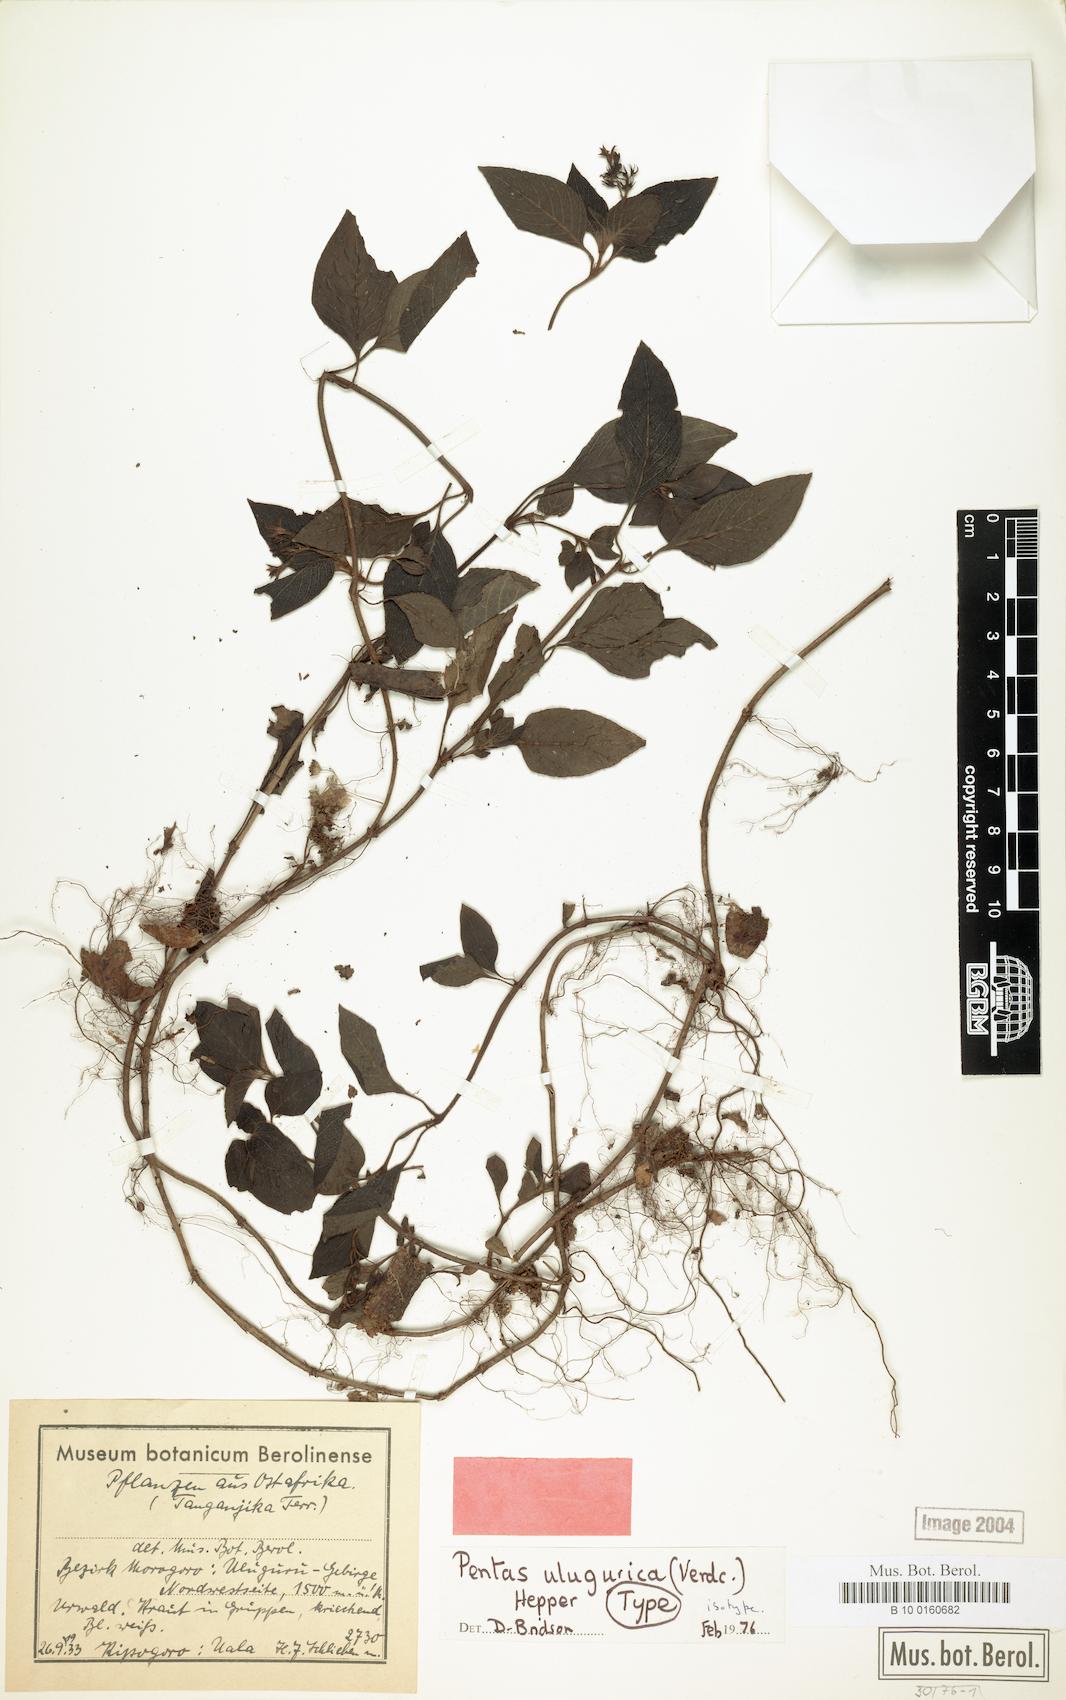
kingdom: Plantae
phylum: Tracheophyta
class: Magnoliopsida
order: Gentianales
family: Rubiaceae
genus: Phyllopentas
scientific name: Phyllopentas ulugurica
